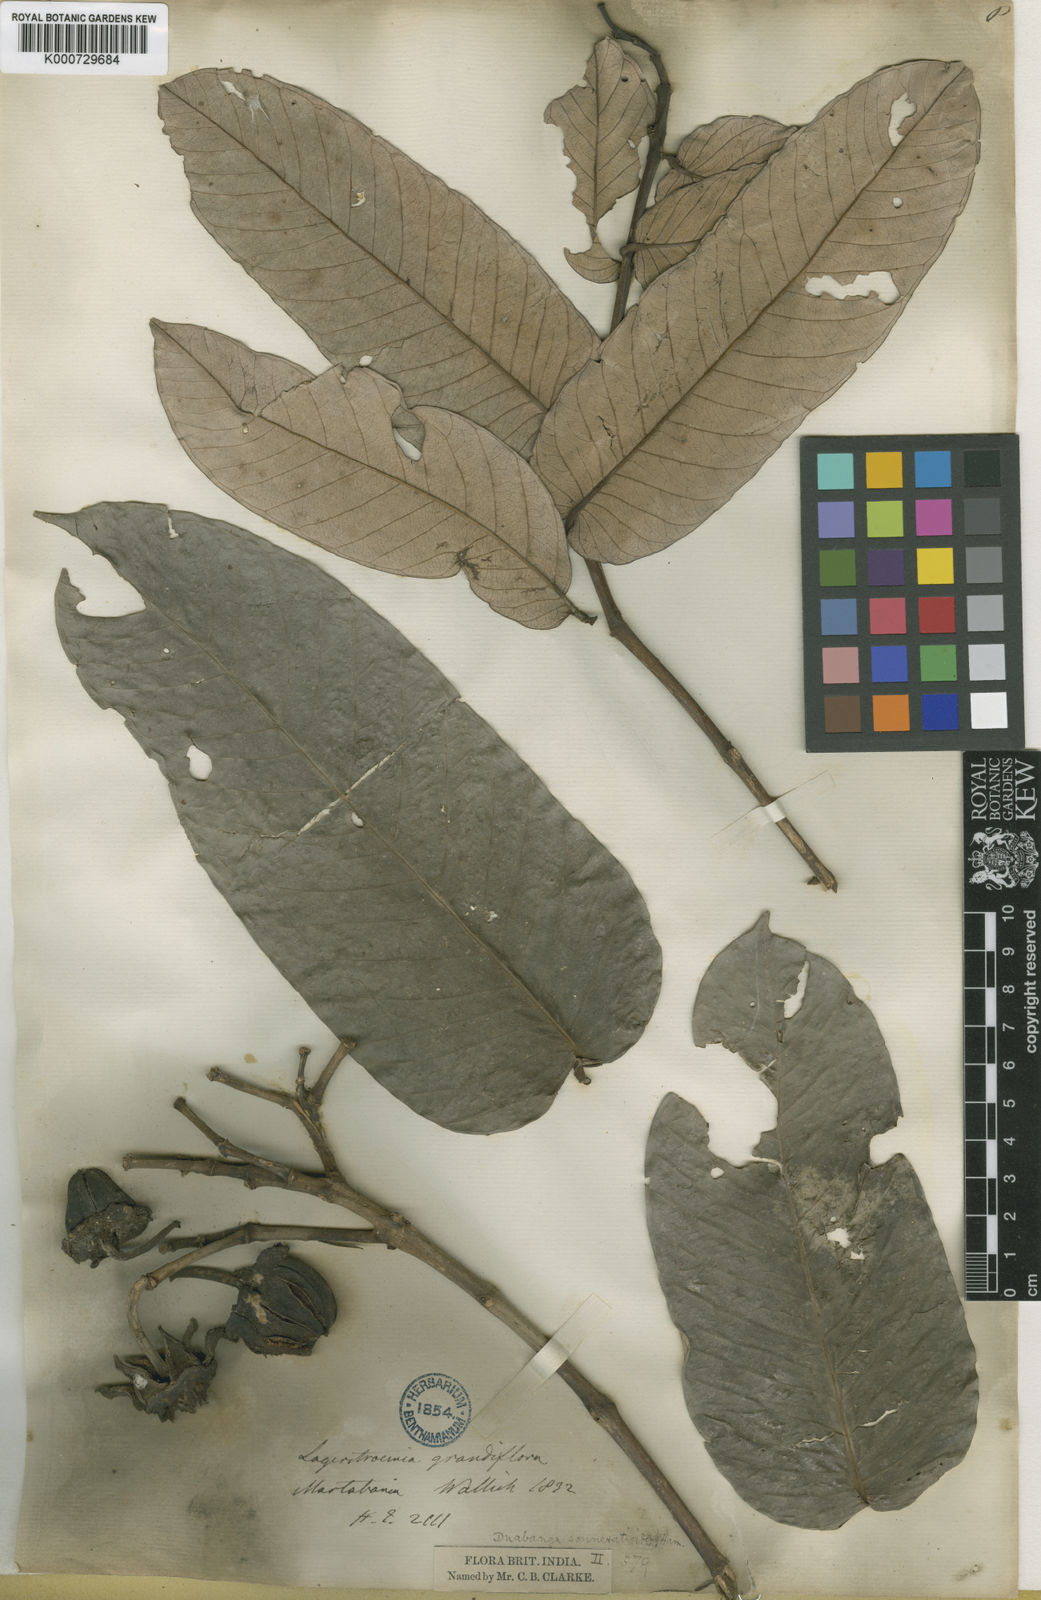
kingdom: Plantae
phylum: Tracheophyta
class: Magnoliopsida
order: Myrtales
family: Lythraceae
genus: Duabanga
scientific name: Duabanga grandiflora
